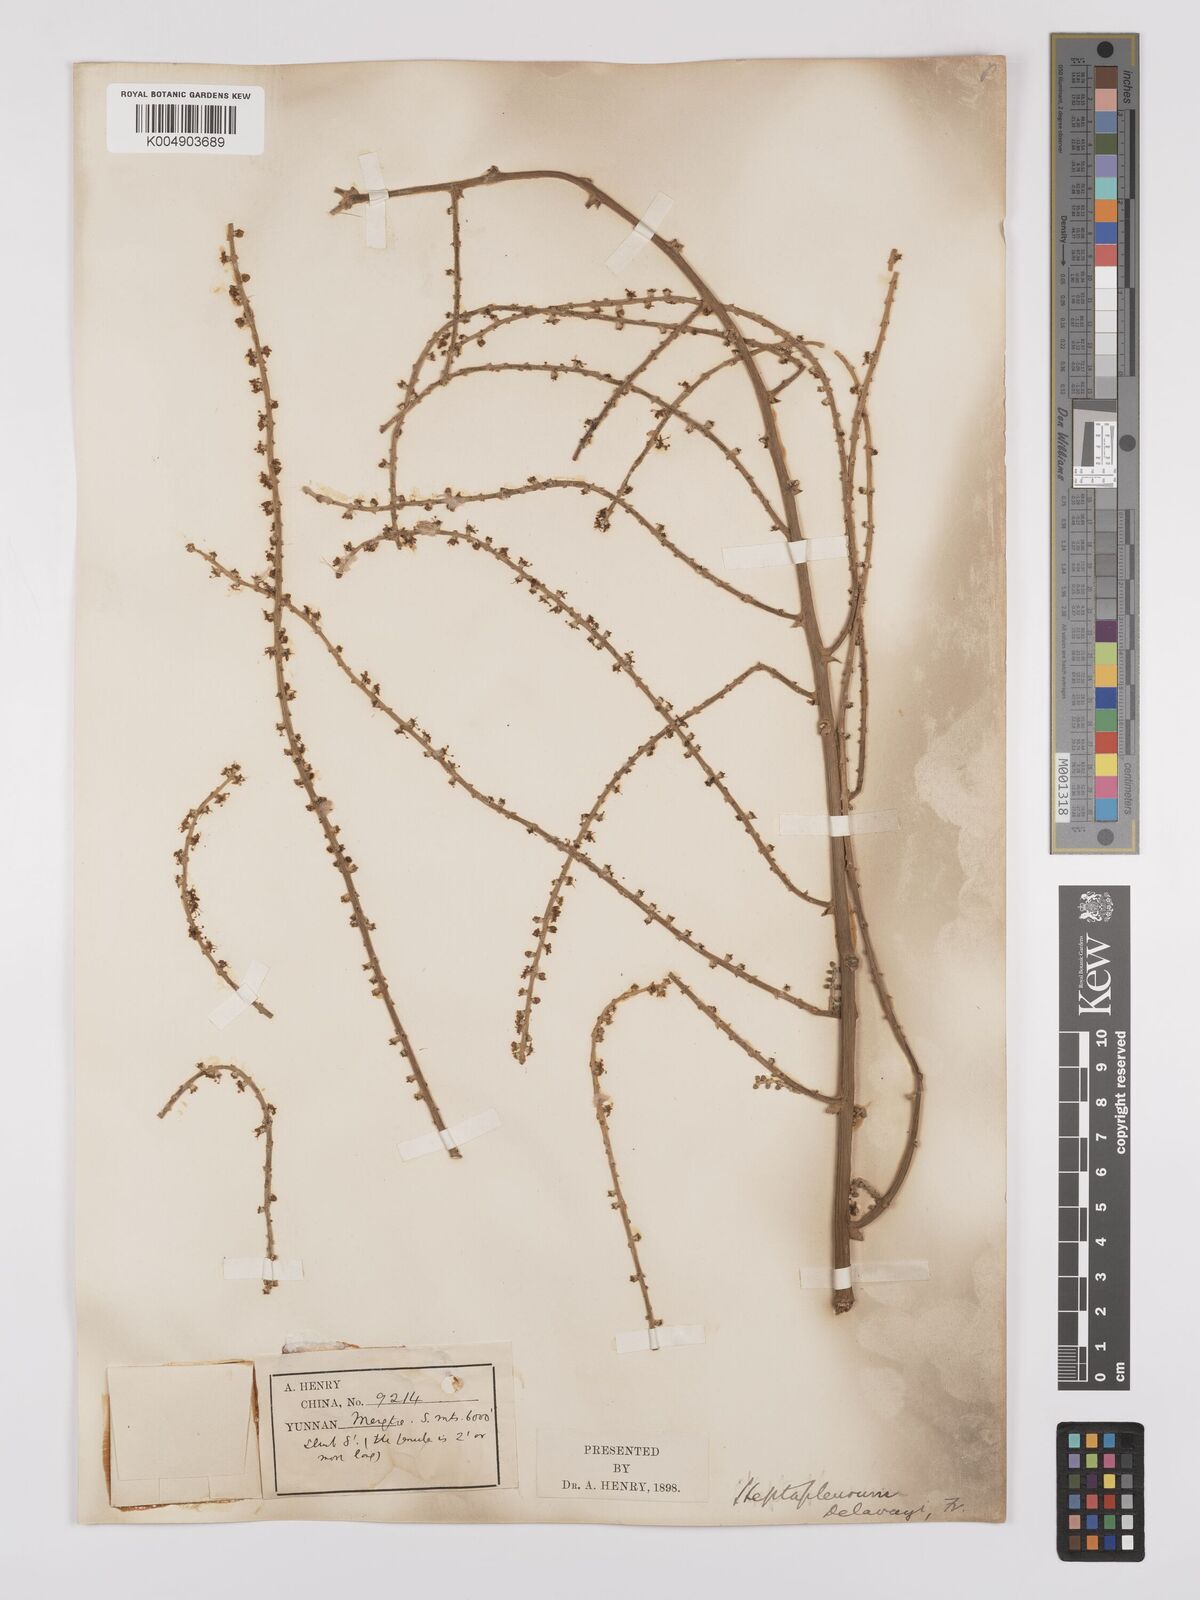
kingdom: Plantae
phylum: Tracheophyta
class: Magnoliopsida
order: Apiales
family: Araliaceae
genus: Heptapleurum
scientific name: Heptapleurum delavayi
